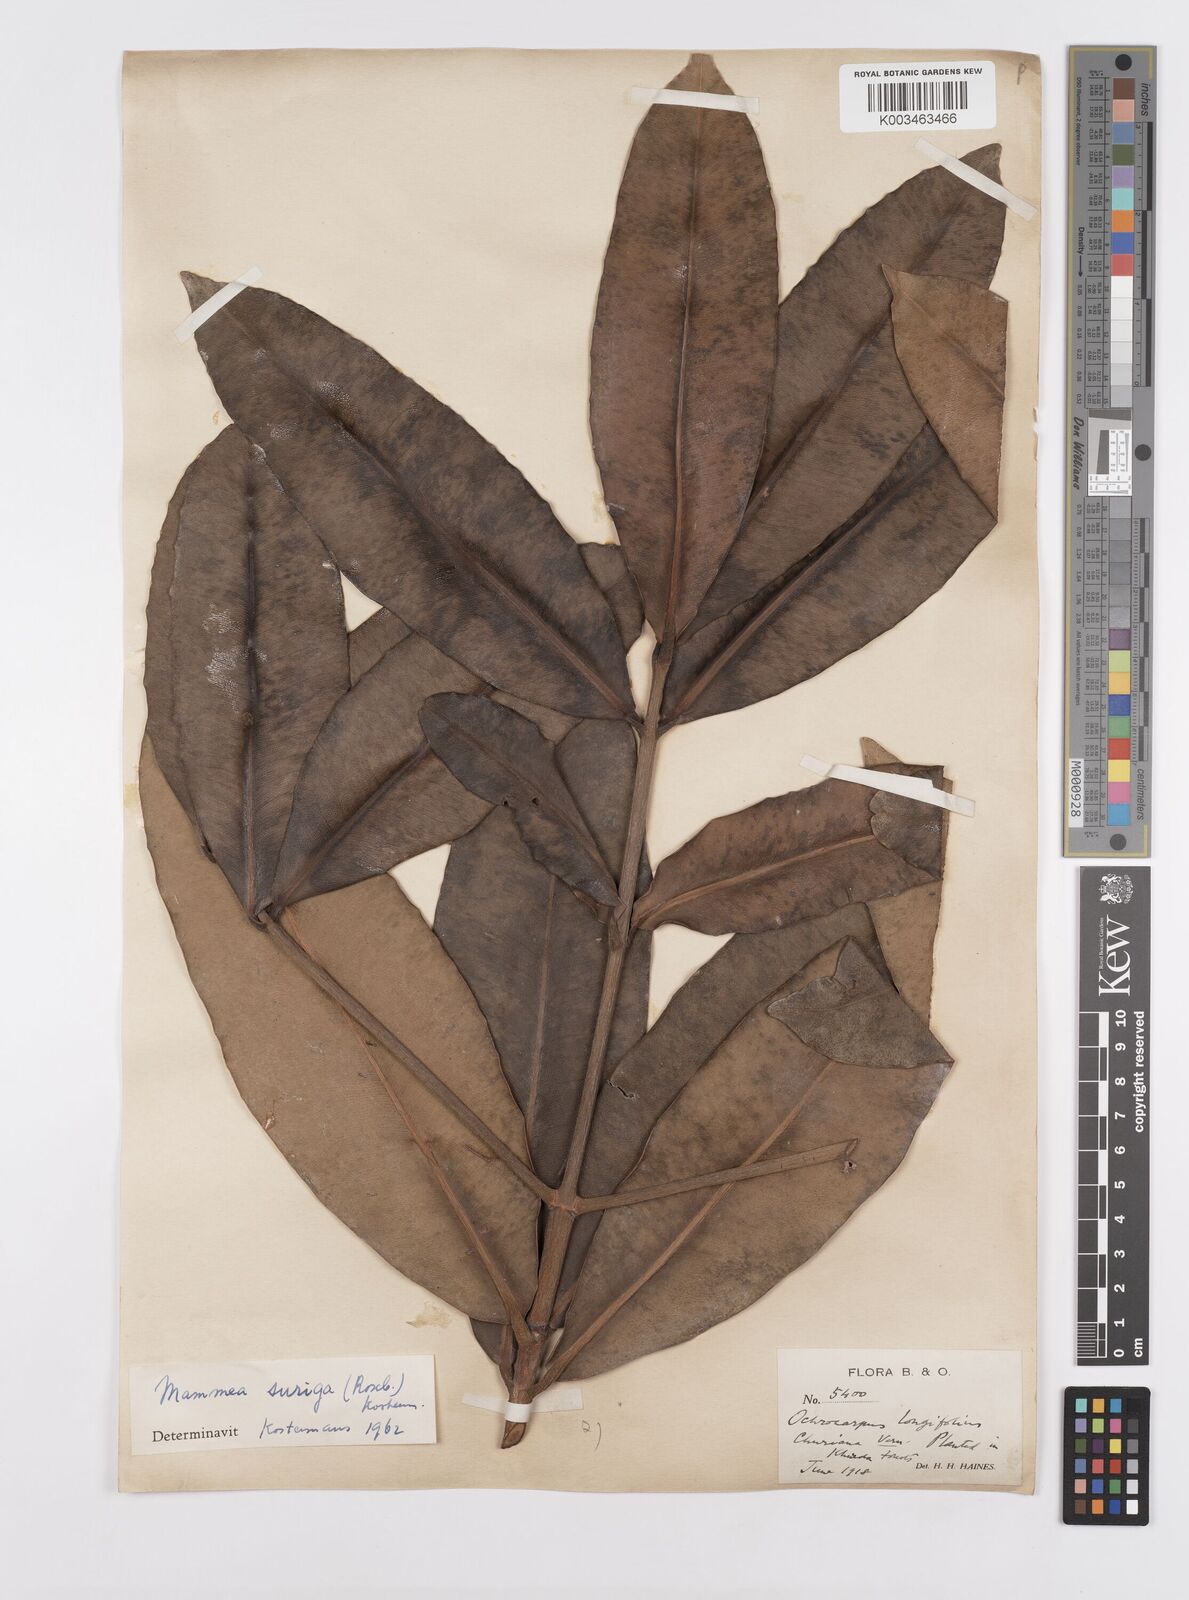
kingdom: Plantae
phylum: Tracheophyta
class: Magnoliopsida
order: Malpighiales
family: Calophyllaceae
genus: Mammea
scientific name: Mammea suriga
